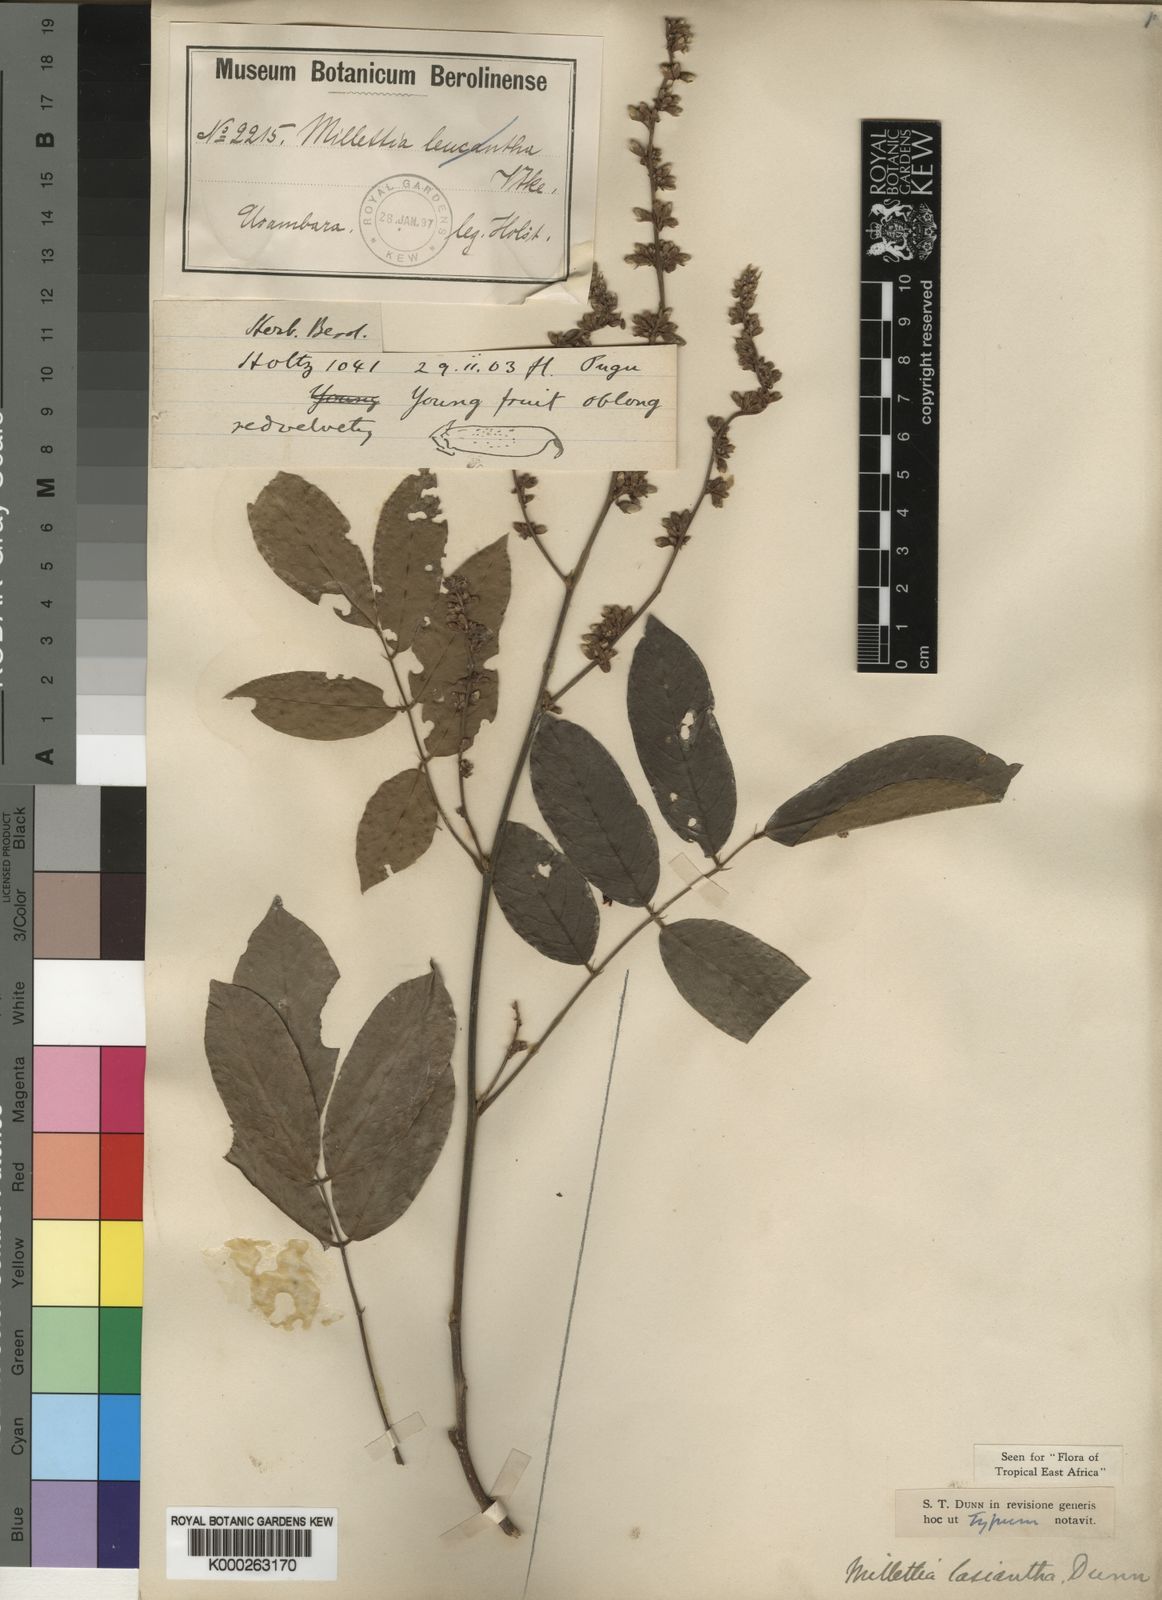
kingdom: Plantae
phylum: Tracheophyta
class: Magnoliopsida
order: Fabales
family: Fabaceae
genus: Millettia
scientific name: Millettia lasiantha
